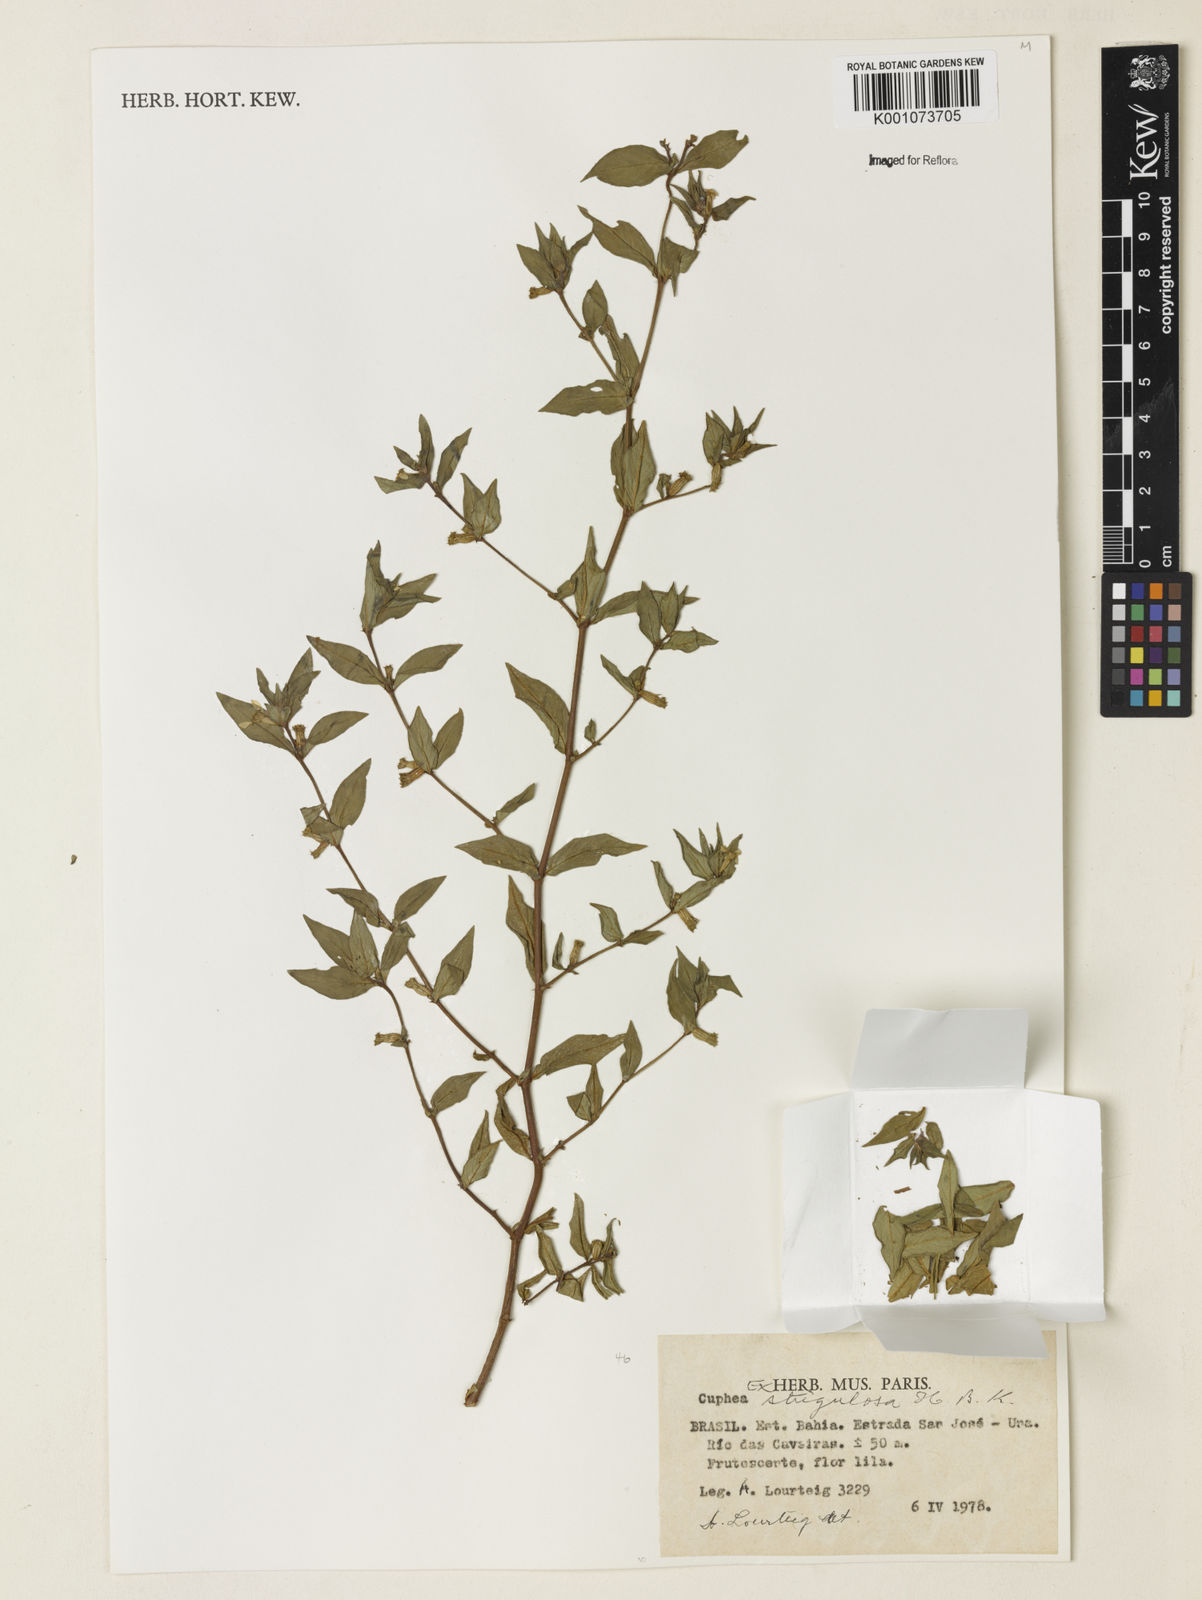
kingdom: Plantae
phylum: Tracheophyta
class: Magnoliopsida
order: Myrtales
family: Lythraceae
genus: Cuphea
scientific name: Cuphea strigulosa
